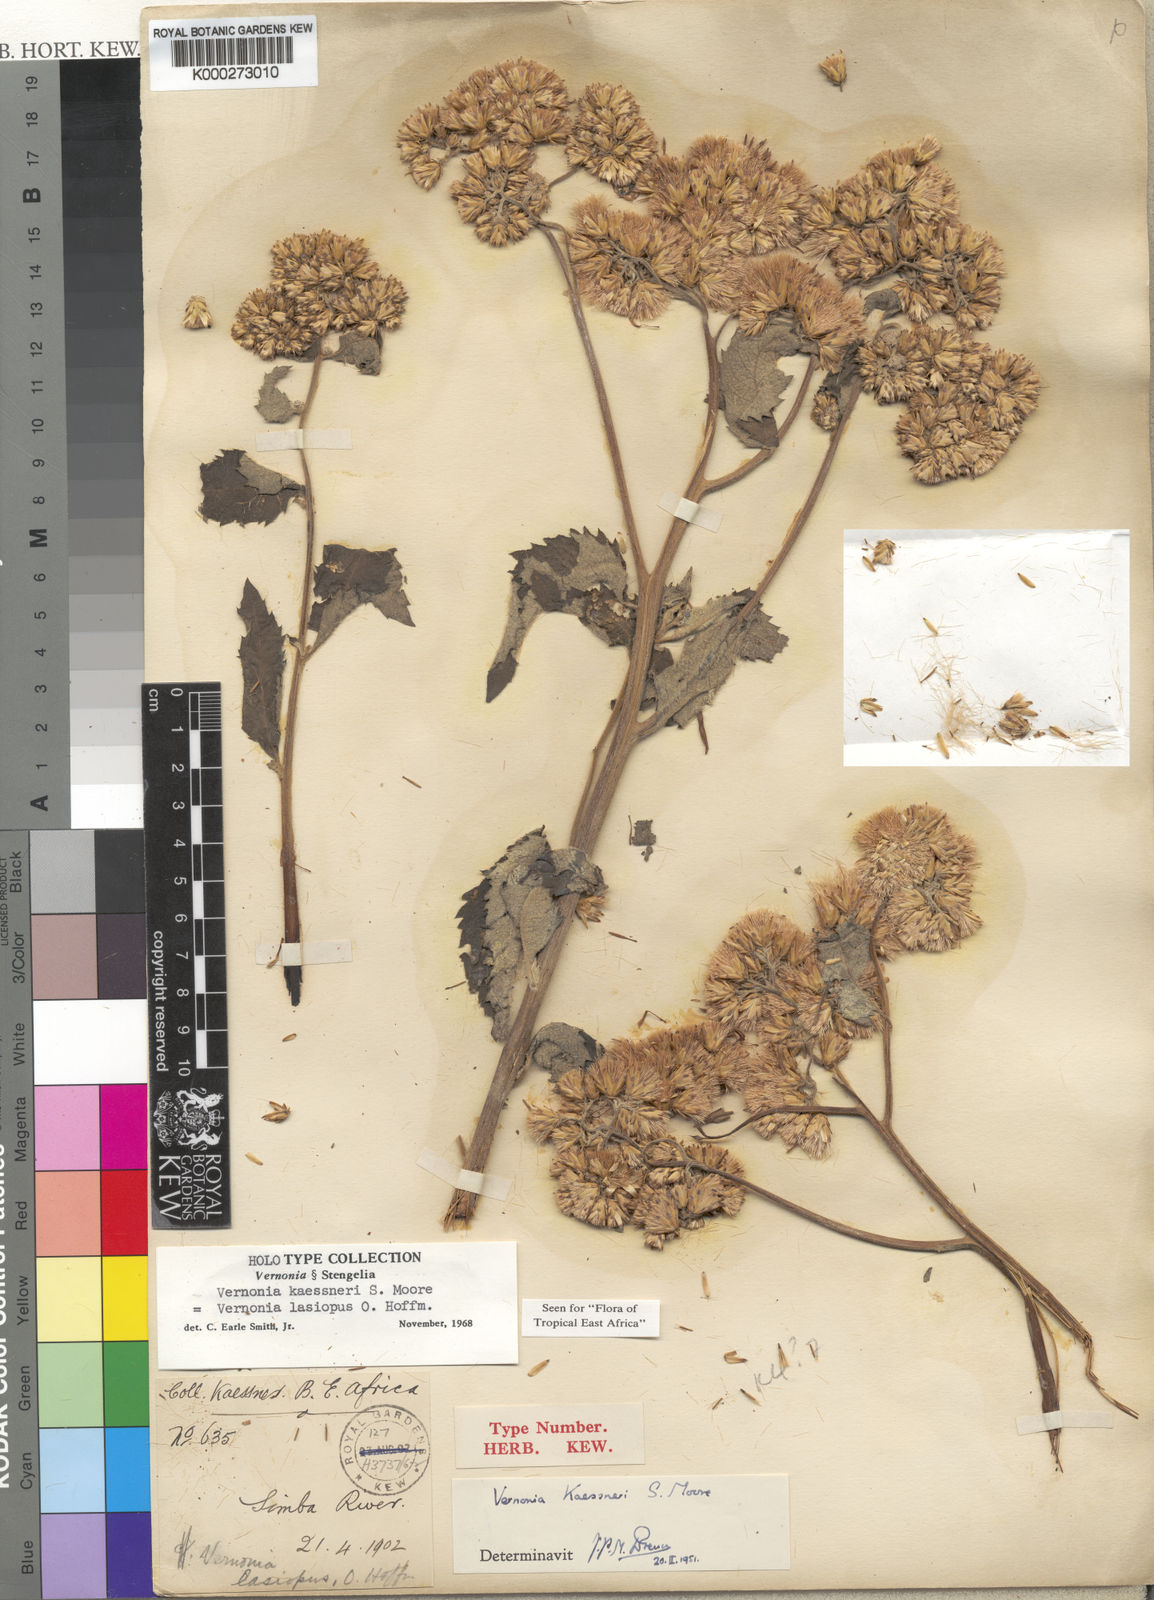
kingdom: Plantae
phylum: Tracheophyta
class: Magnoliopsida
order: Asterales
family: Asteraceae
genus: Baccharoides
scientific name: Baccharoides lasiopus
